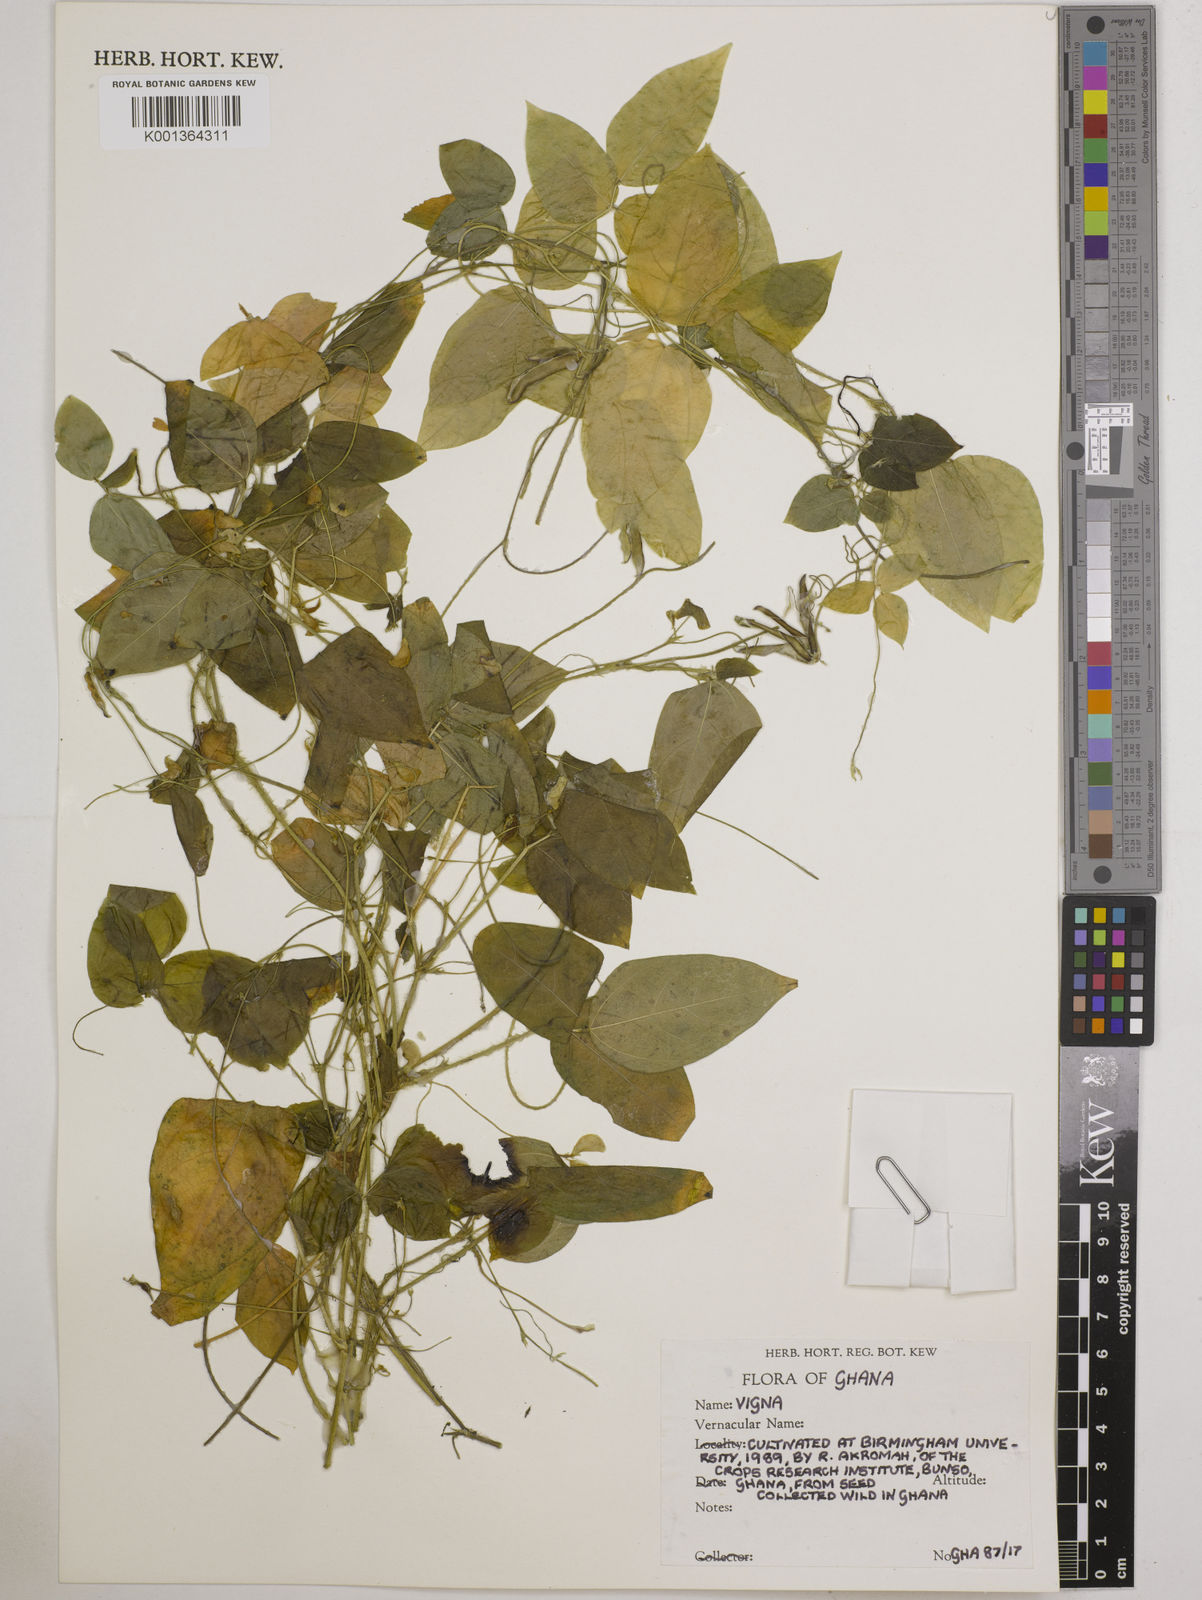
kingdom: Plantae
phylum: Tracheophyta
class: Magnoliopsida
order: Fabales
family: Fabaceae
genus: Vigna
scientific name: Vigna
